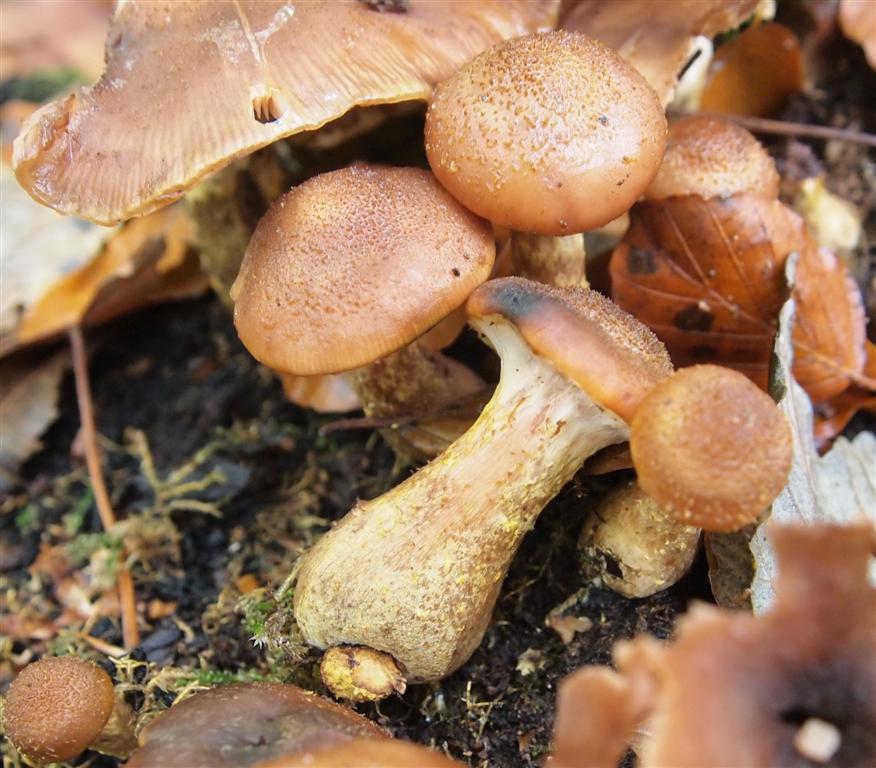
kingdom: Fungi
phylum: Basidiomycota
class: Agaricomycetes
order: Agaricales
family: Physalacriaceae
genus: Armillaria
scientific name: Armillaria lutea
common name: køllestokket honningsvamp
